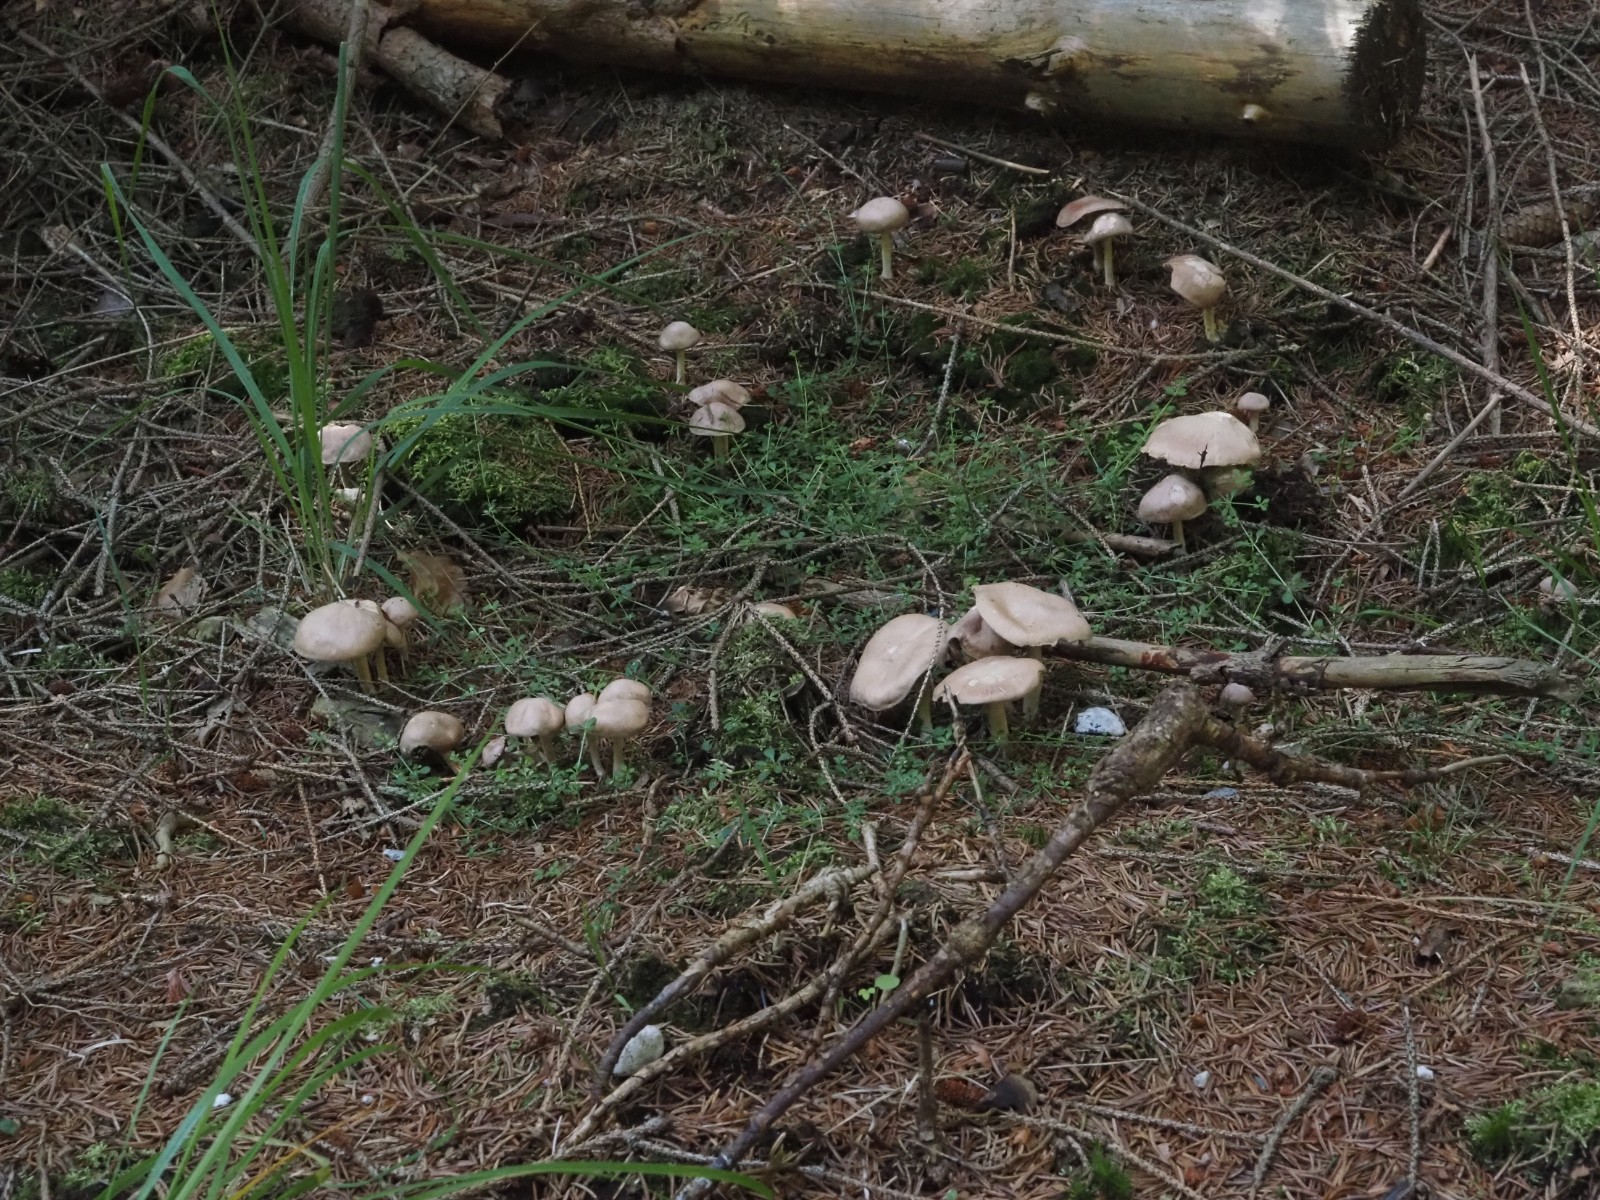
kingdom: Fungi
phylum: Basidiomycota
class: Agaricomycetes
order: Agaricales
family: Omphalotaceae
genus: Collybiopsis
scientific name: Collybiopsis peronata
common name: bestøvlet fladhat
